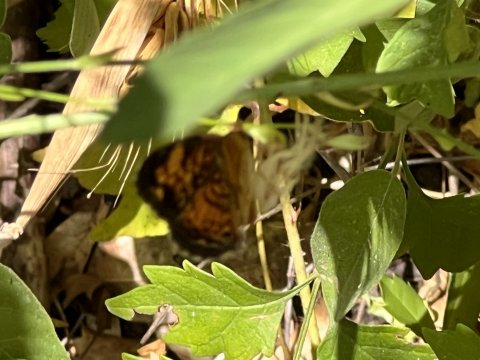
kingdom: Animalia
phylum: Arthropoda
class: Insecta
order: Lepidoptera
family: Nymphalidae
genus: Phyciodes
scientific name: Phyciodes tharos
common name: Pearl Crescent
